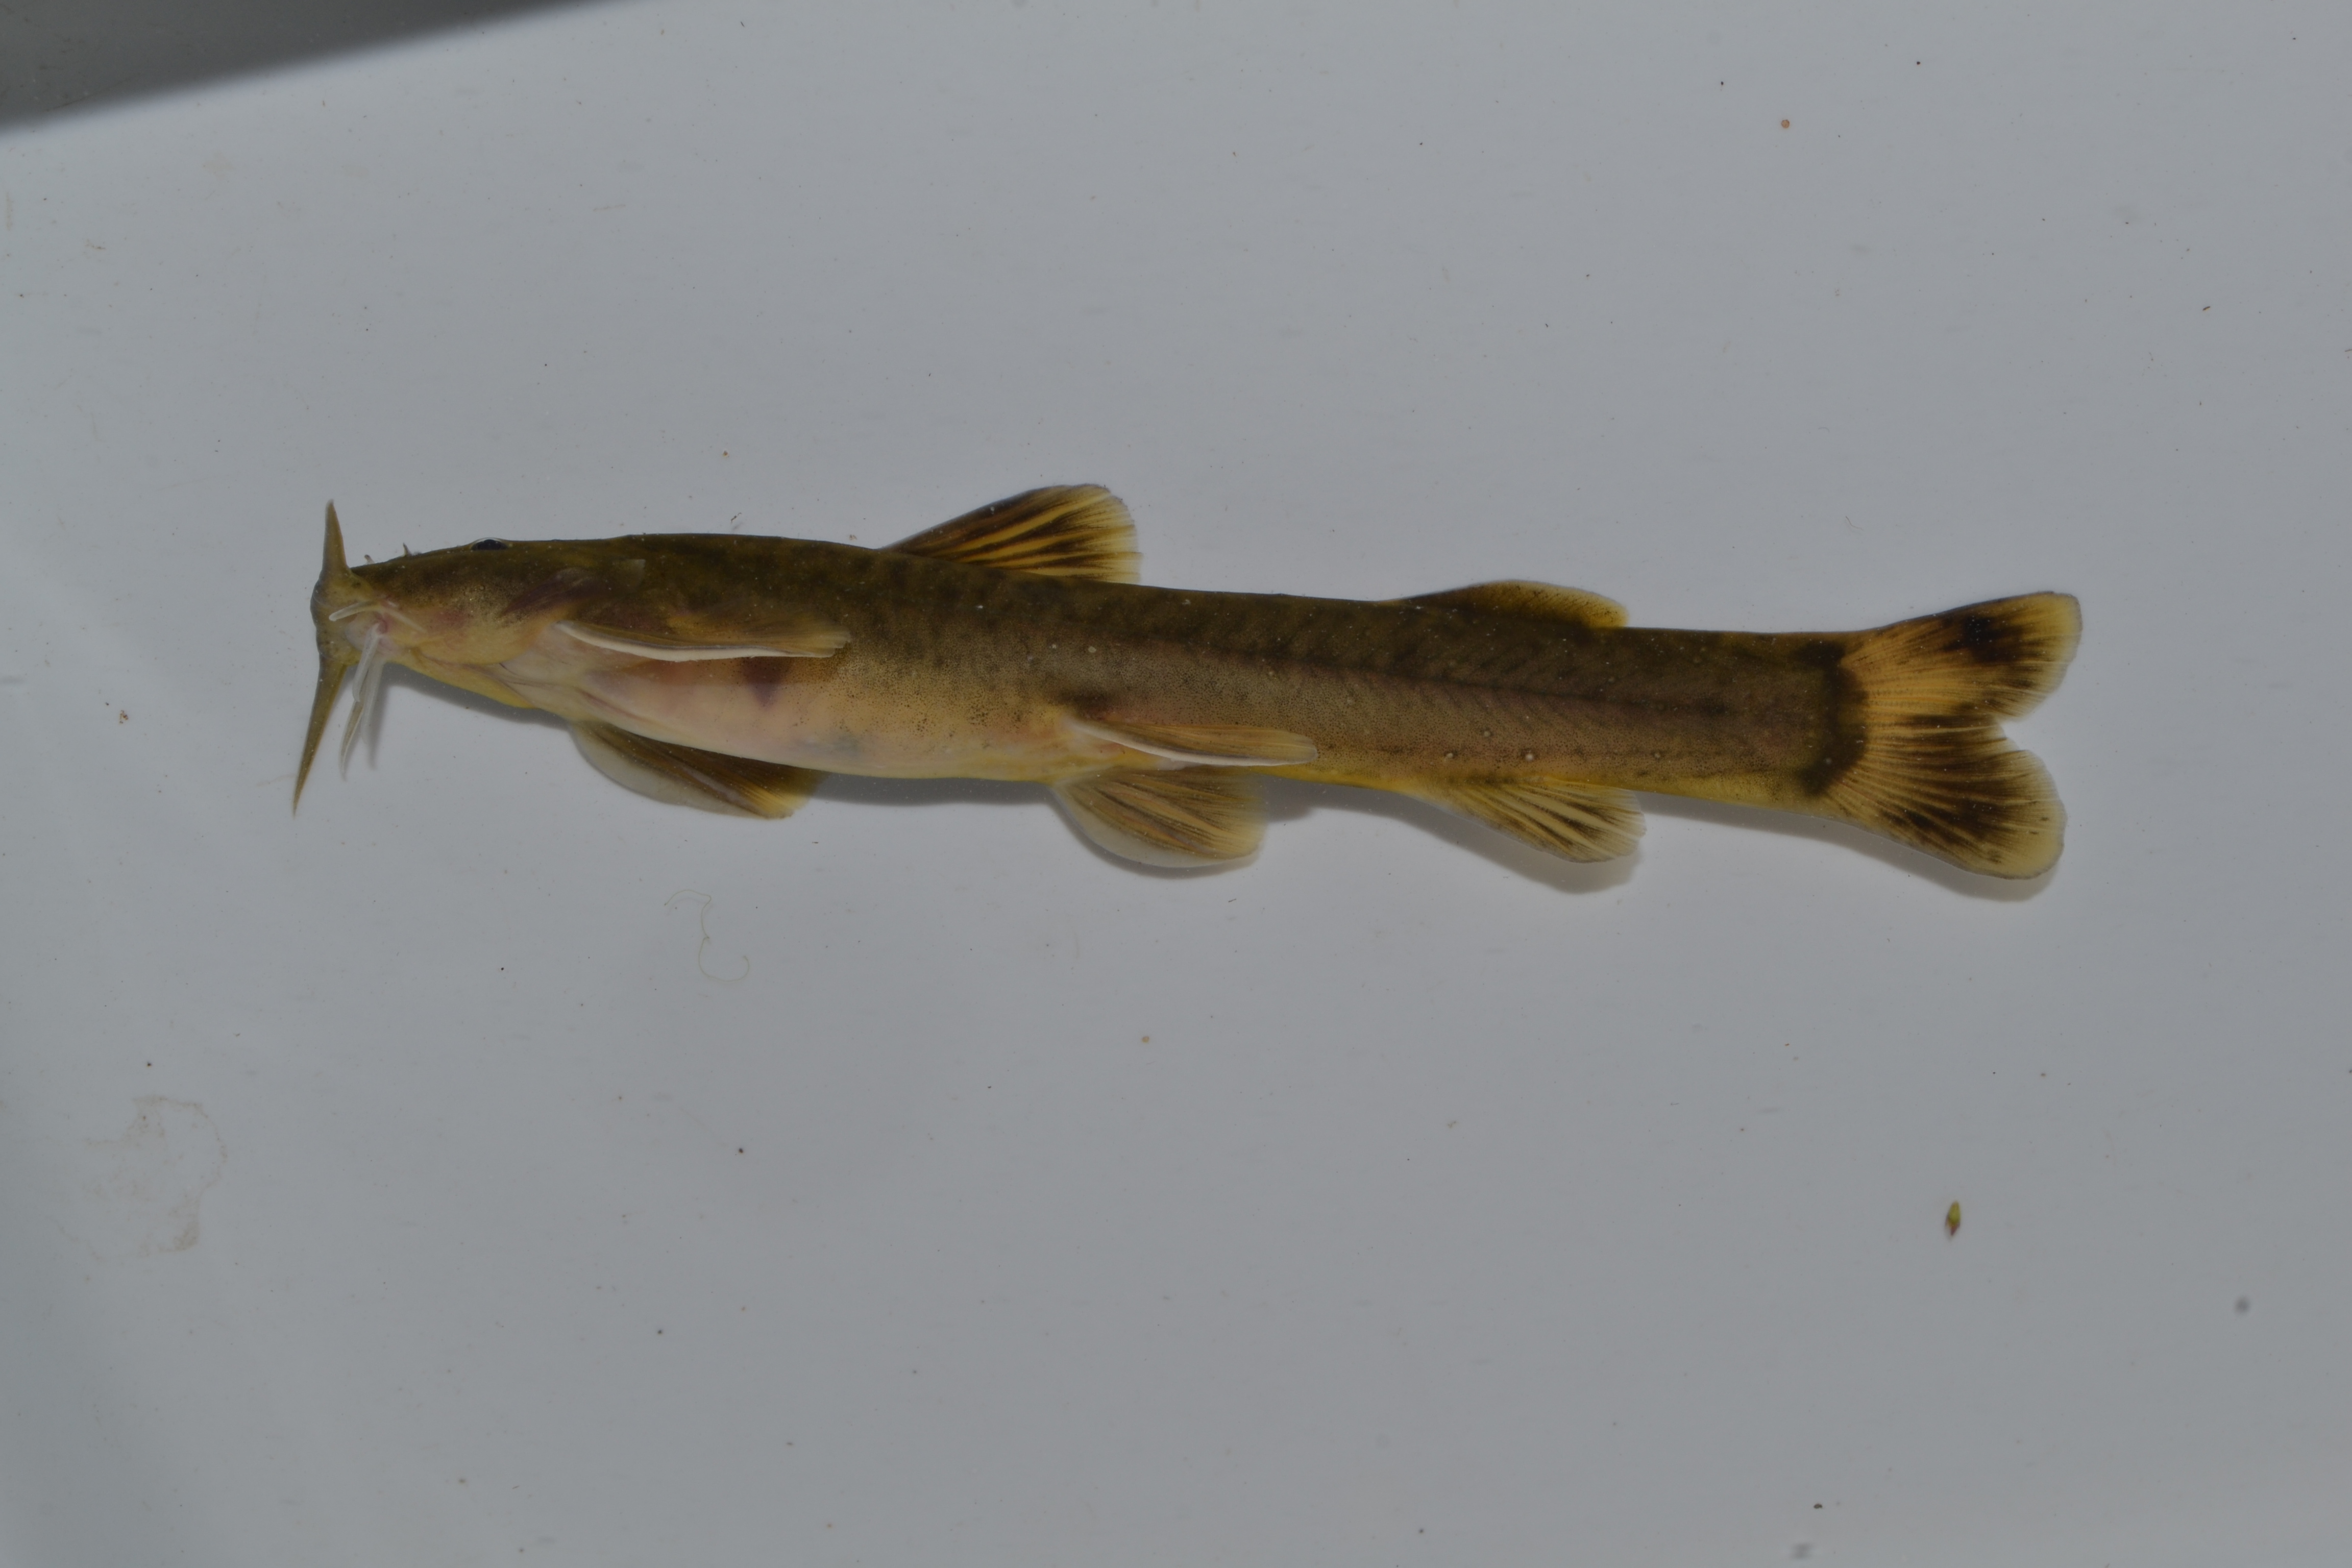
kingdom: Animalia
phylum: Chordata
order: Siluriformes
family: Amphiliidae
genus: Amphilius
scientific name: Amphilius zuluorum
